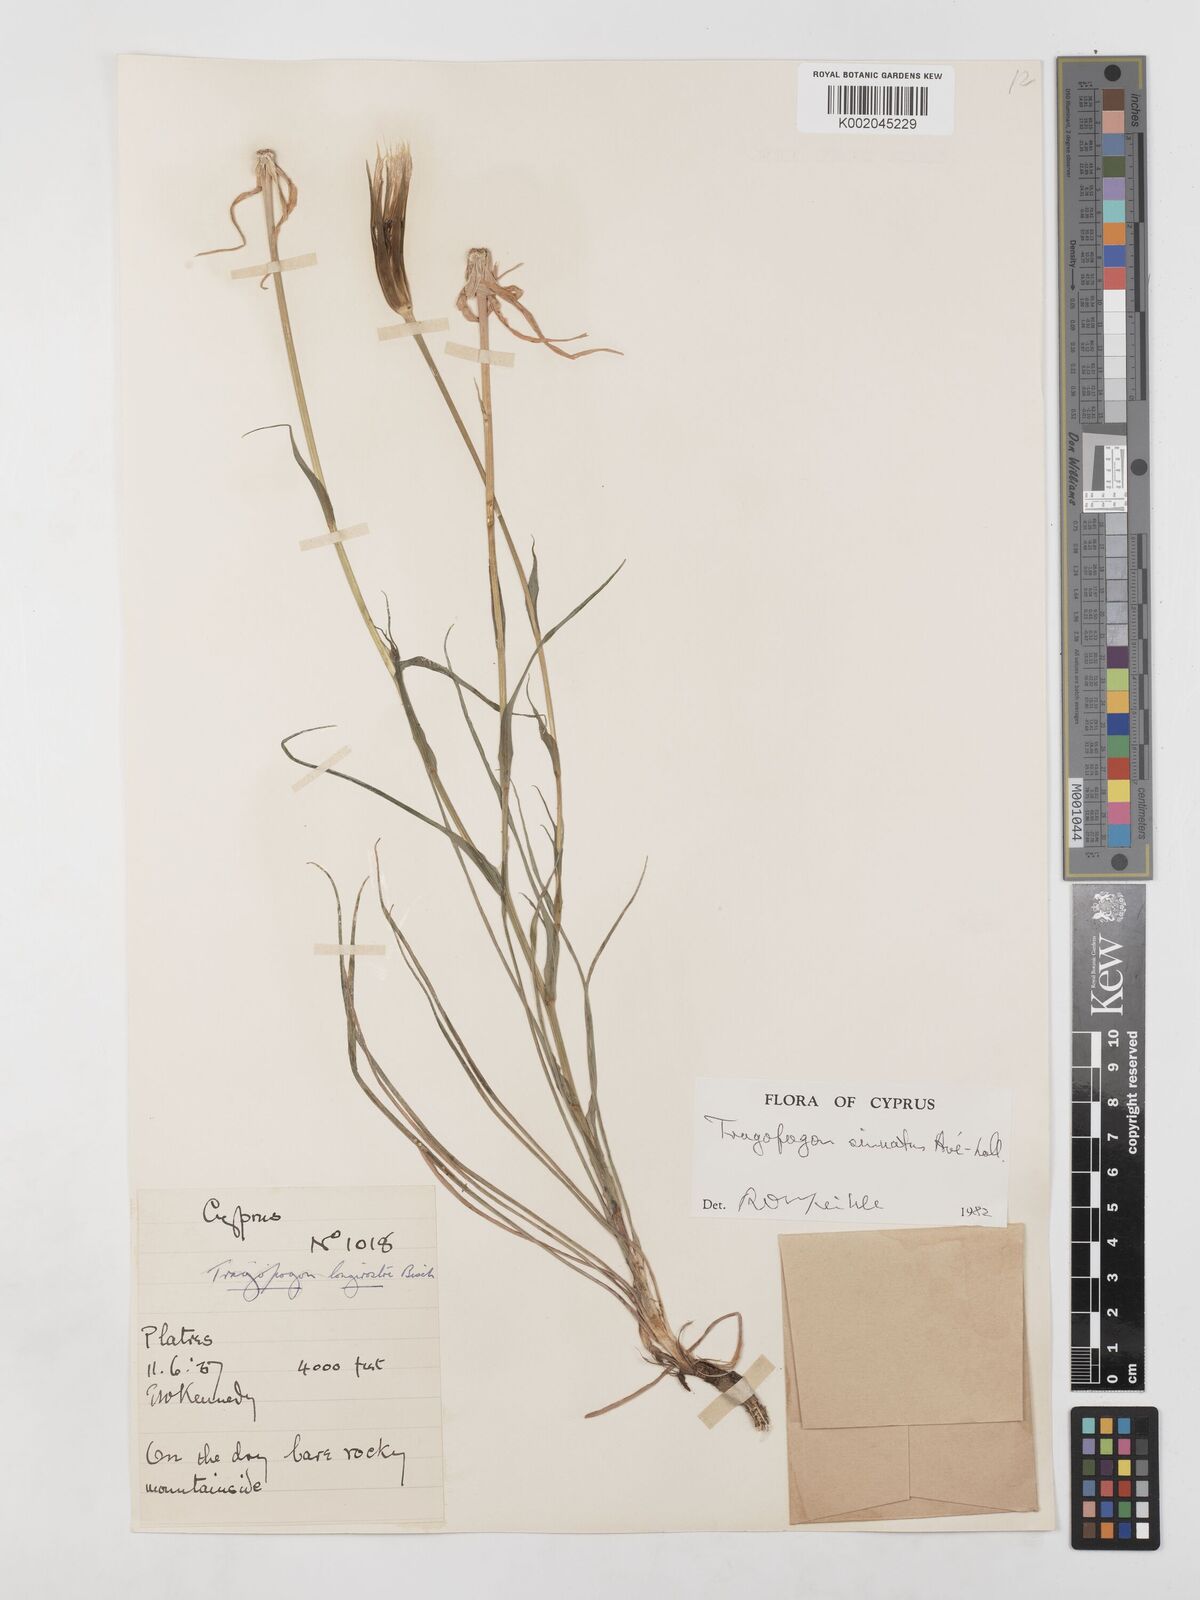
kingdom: Plantae
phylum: Tracheophyta
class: Magnoliopsida
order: Asterales
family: Asteraceae
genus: Tragopogon
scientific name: Tragopogon porrifolius
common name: Salsify
